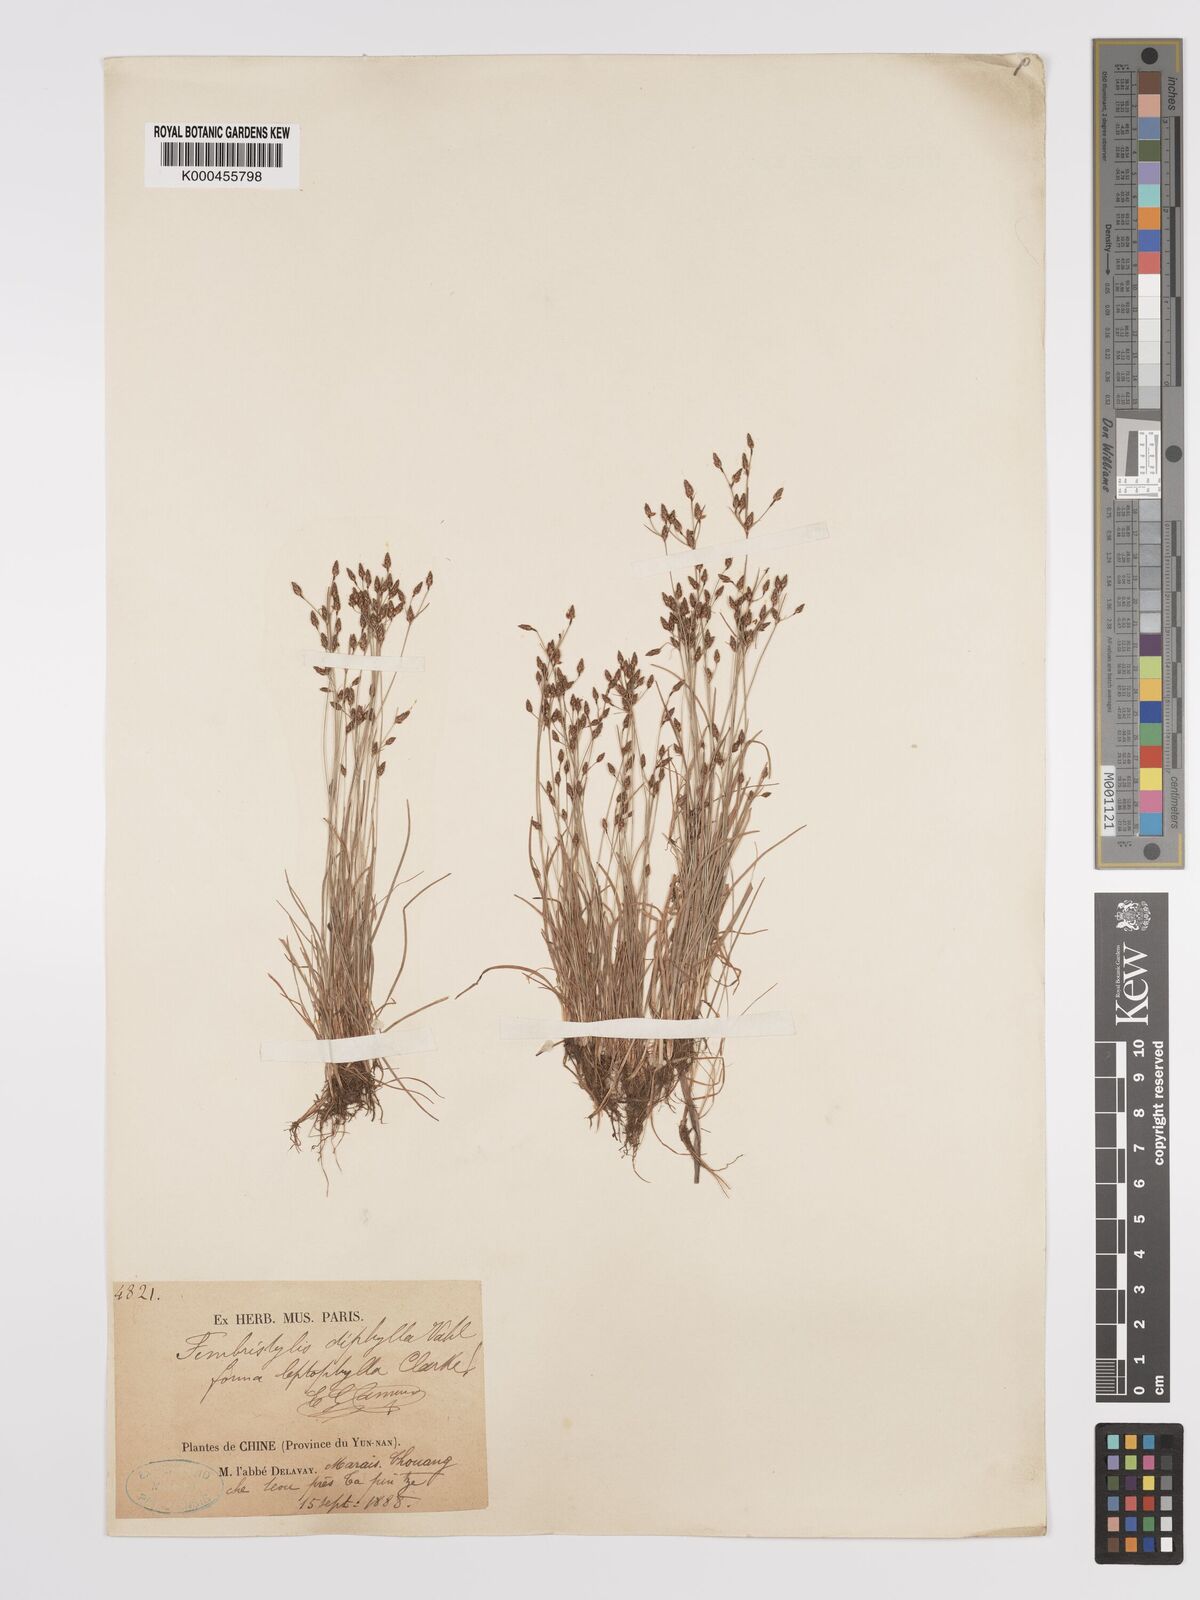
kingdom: Plantae
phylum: Tracheophyta
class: Liliopsida
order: Poales
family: Cyperaceae
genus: Fimbristylis
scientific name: Fimbristylis dichotoma
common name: Forked fimbry
